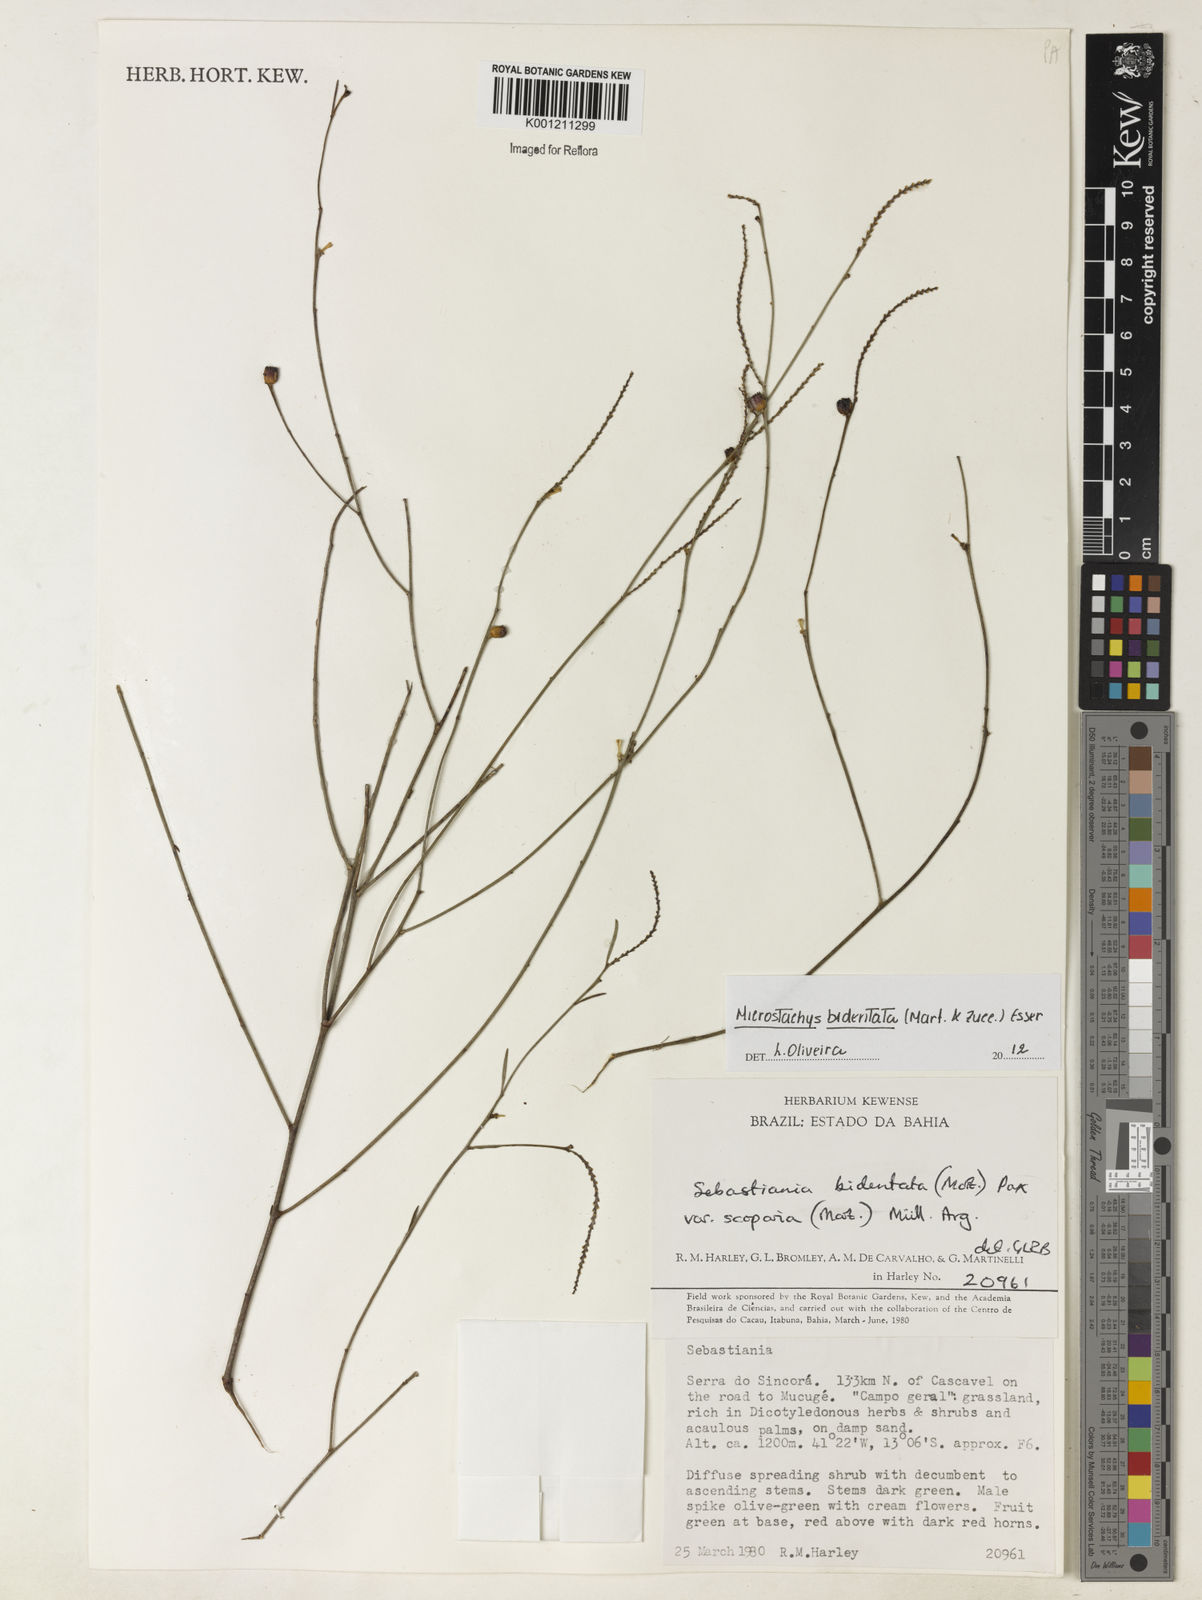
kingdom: Plantae
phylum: Tracheophyta
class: Magnoliopsida
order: Malpighiales
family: Euphorbiaceae
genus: Microstachys
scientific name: Microstachys bidentata
